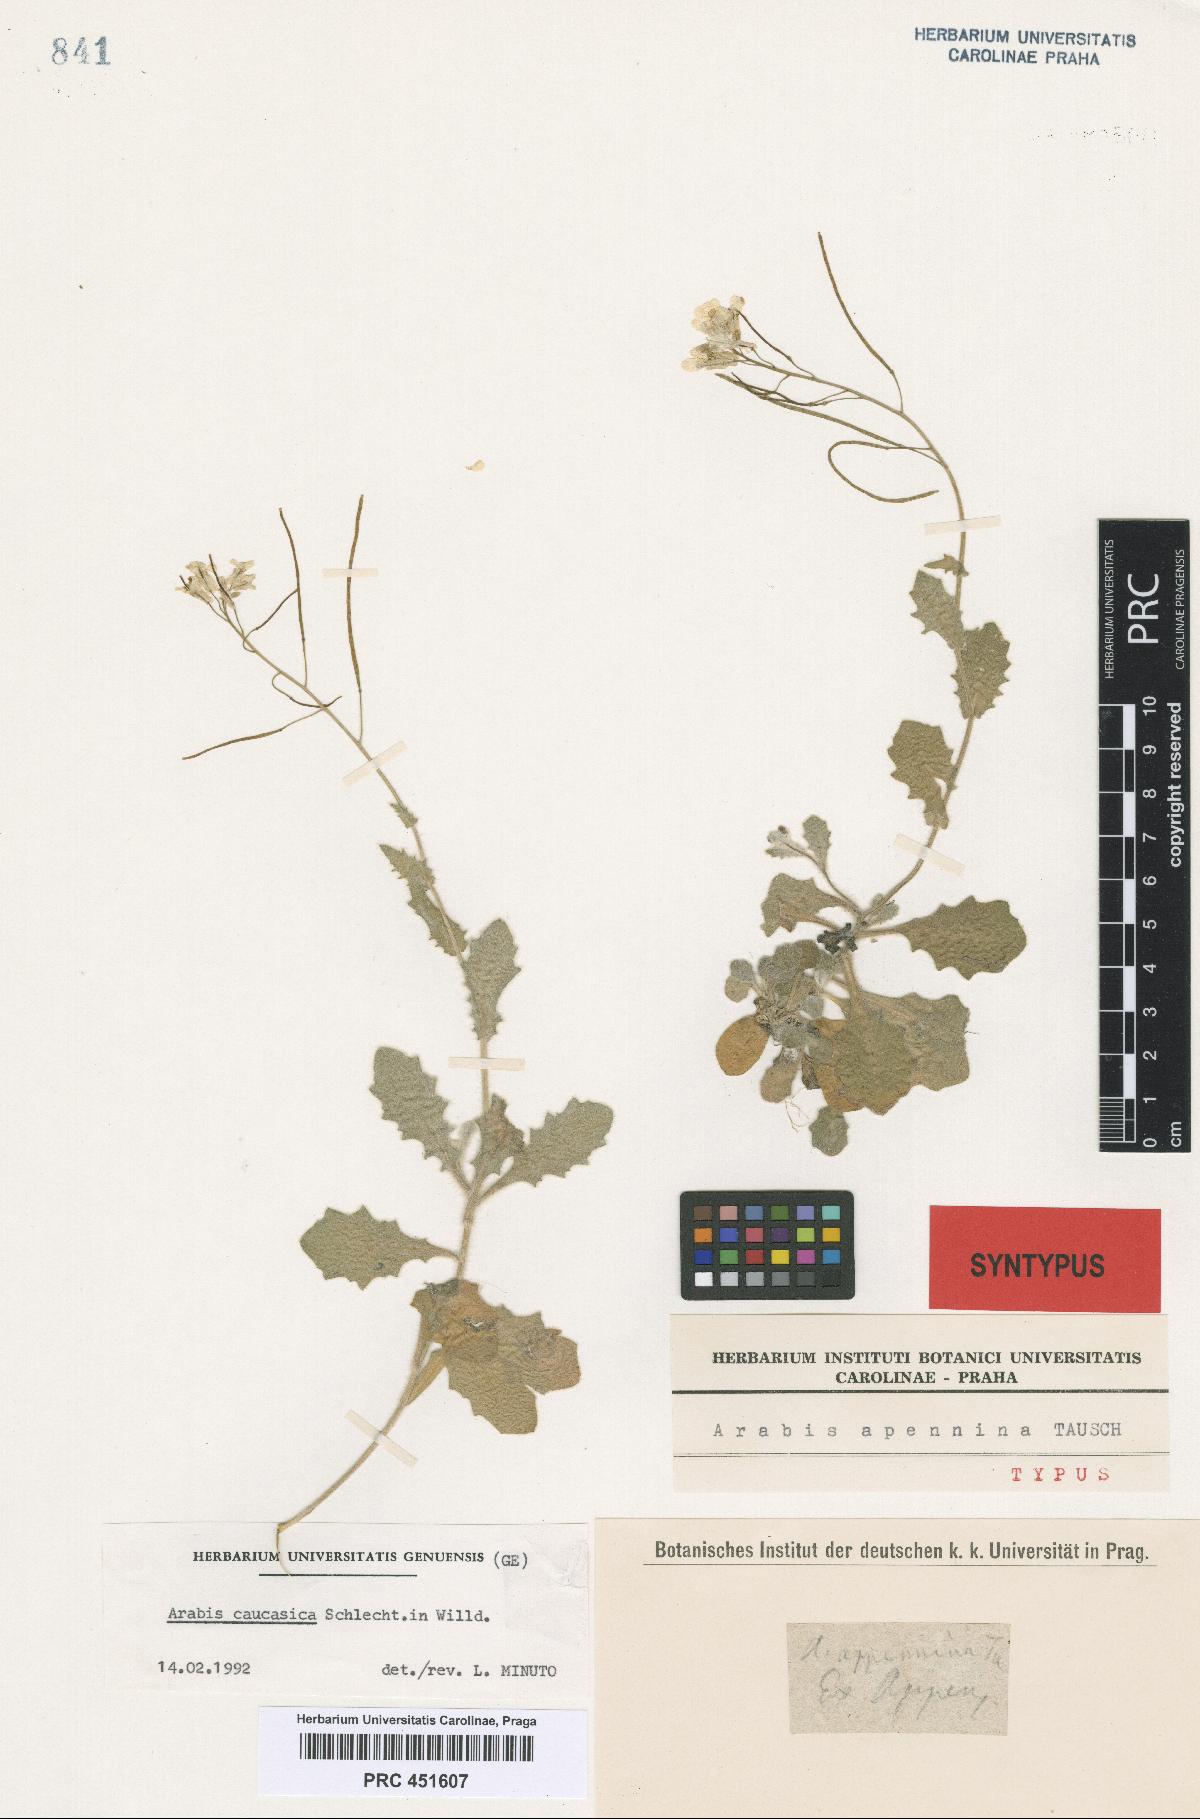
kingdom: Plantae
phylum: Tracheophyta
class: Magnoliopsida
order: Brassicales
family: Brassicaceae
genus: Arabis
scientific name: Arabis apennina
